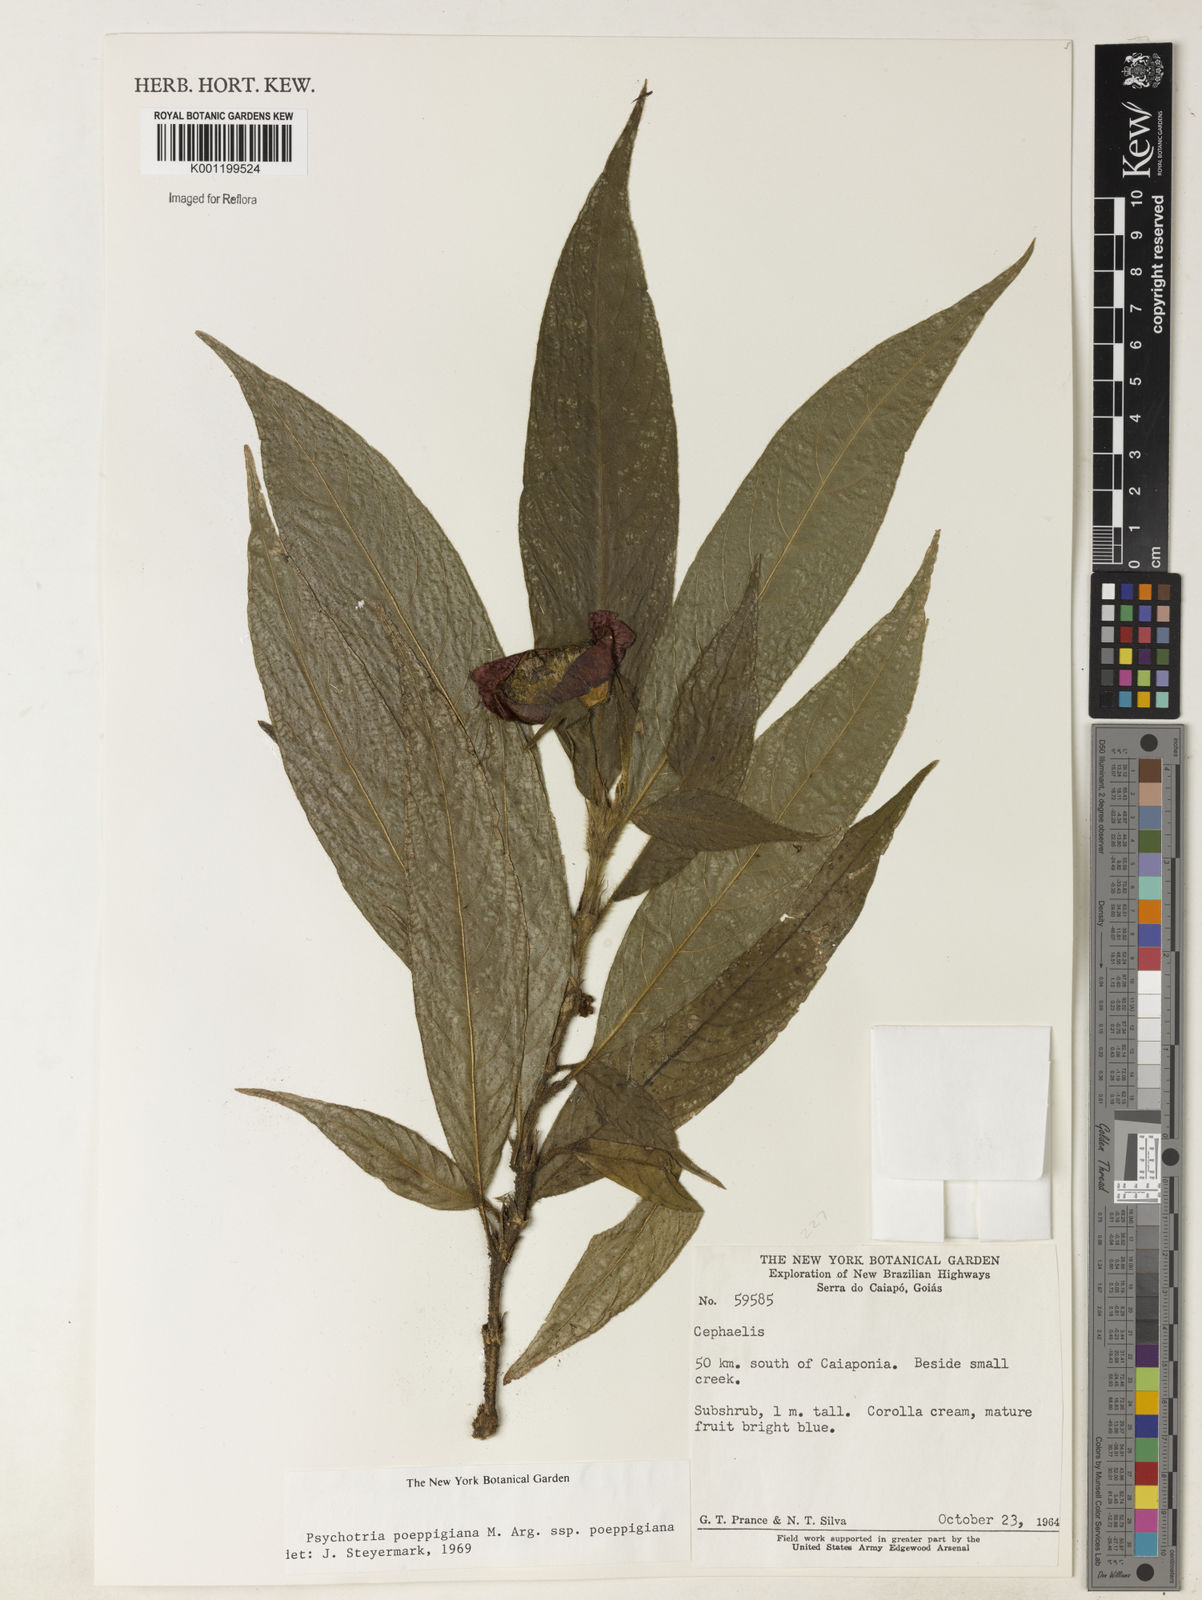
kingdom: Plantae
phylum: Tracheophyta
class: Magnoliopsida
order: Gentianales
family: Rubiaceae
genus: Psychotria
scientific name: Psychotria
